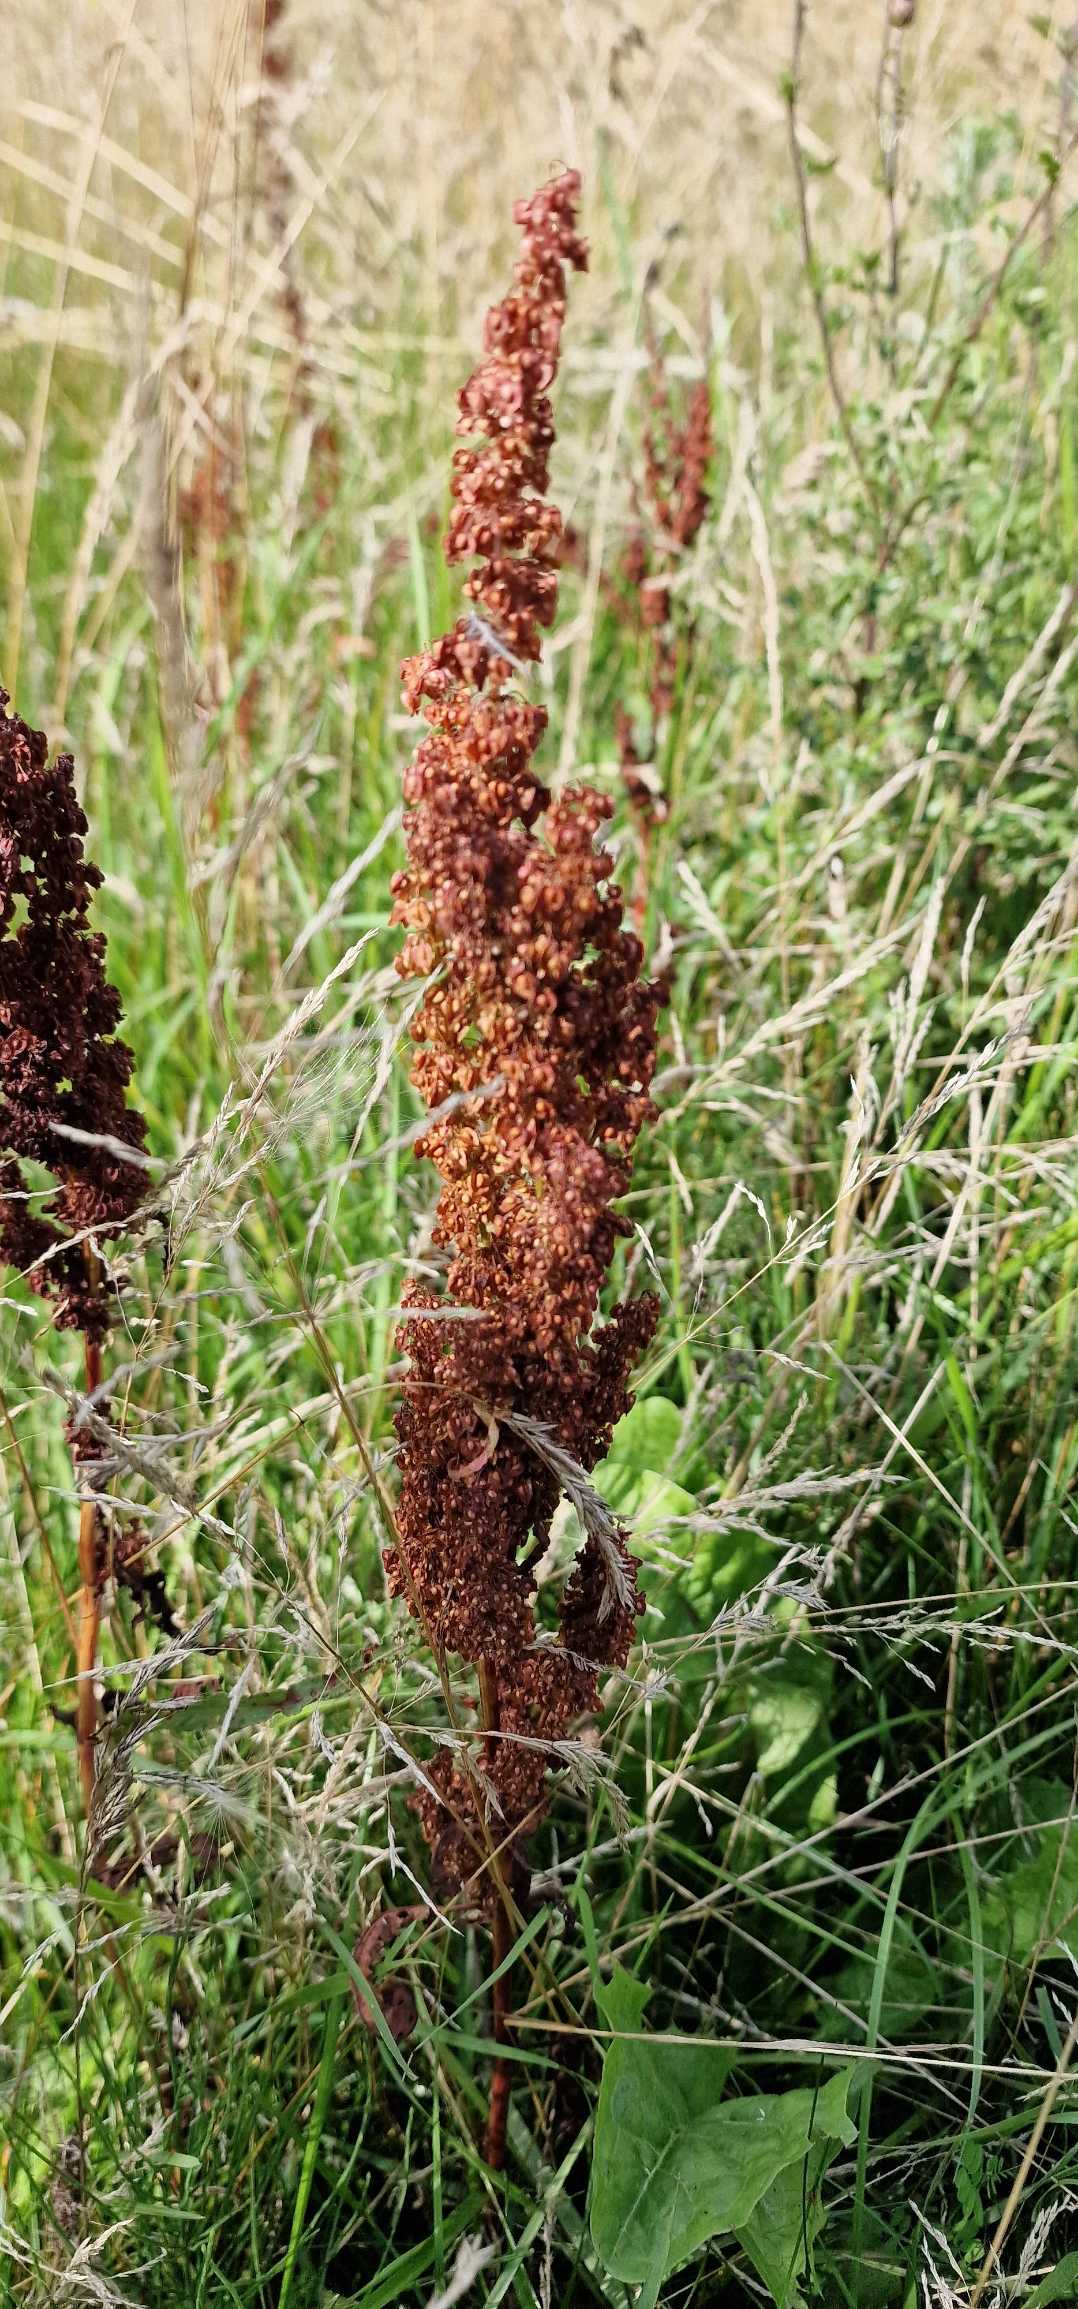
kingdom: Plantae
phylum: Tracheophyta
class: Magnoliopsida
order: Caryophyllales
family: Polygonaceae
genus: Rumex
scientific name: Rumex crispus
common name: Kruset skræppe
